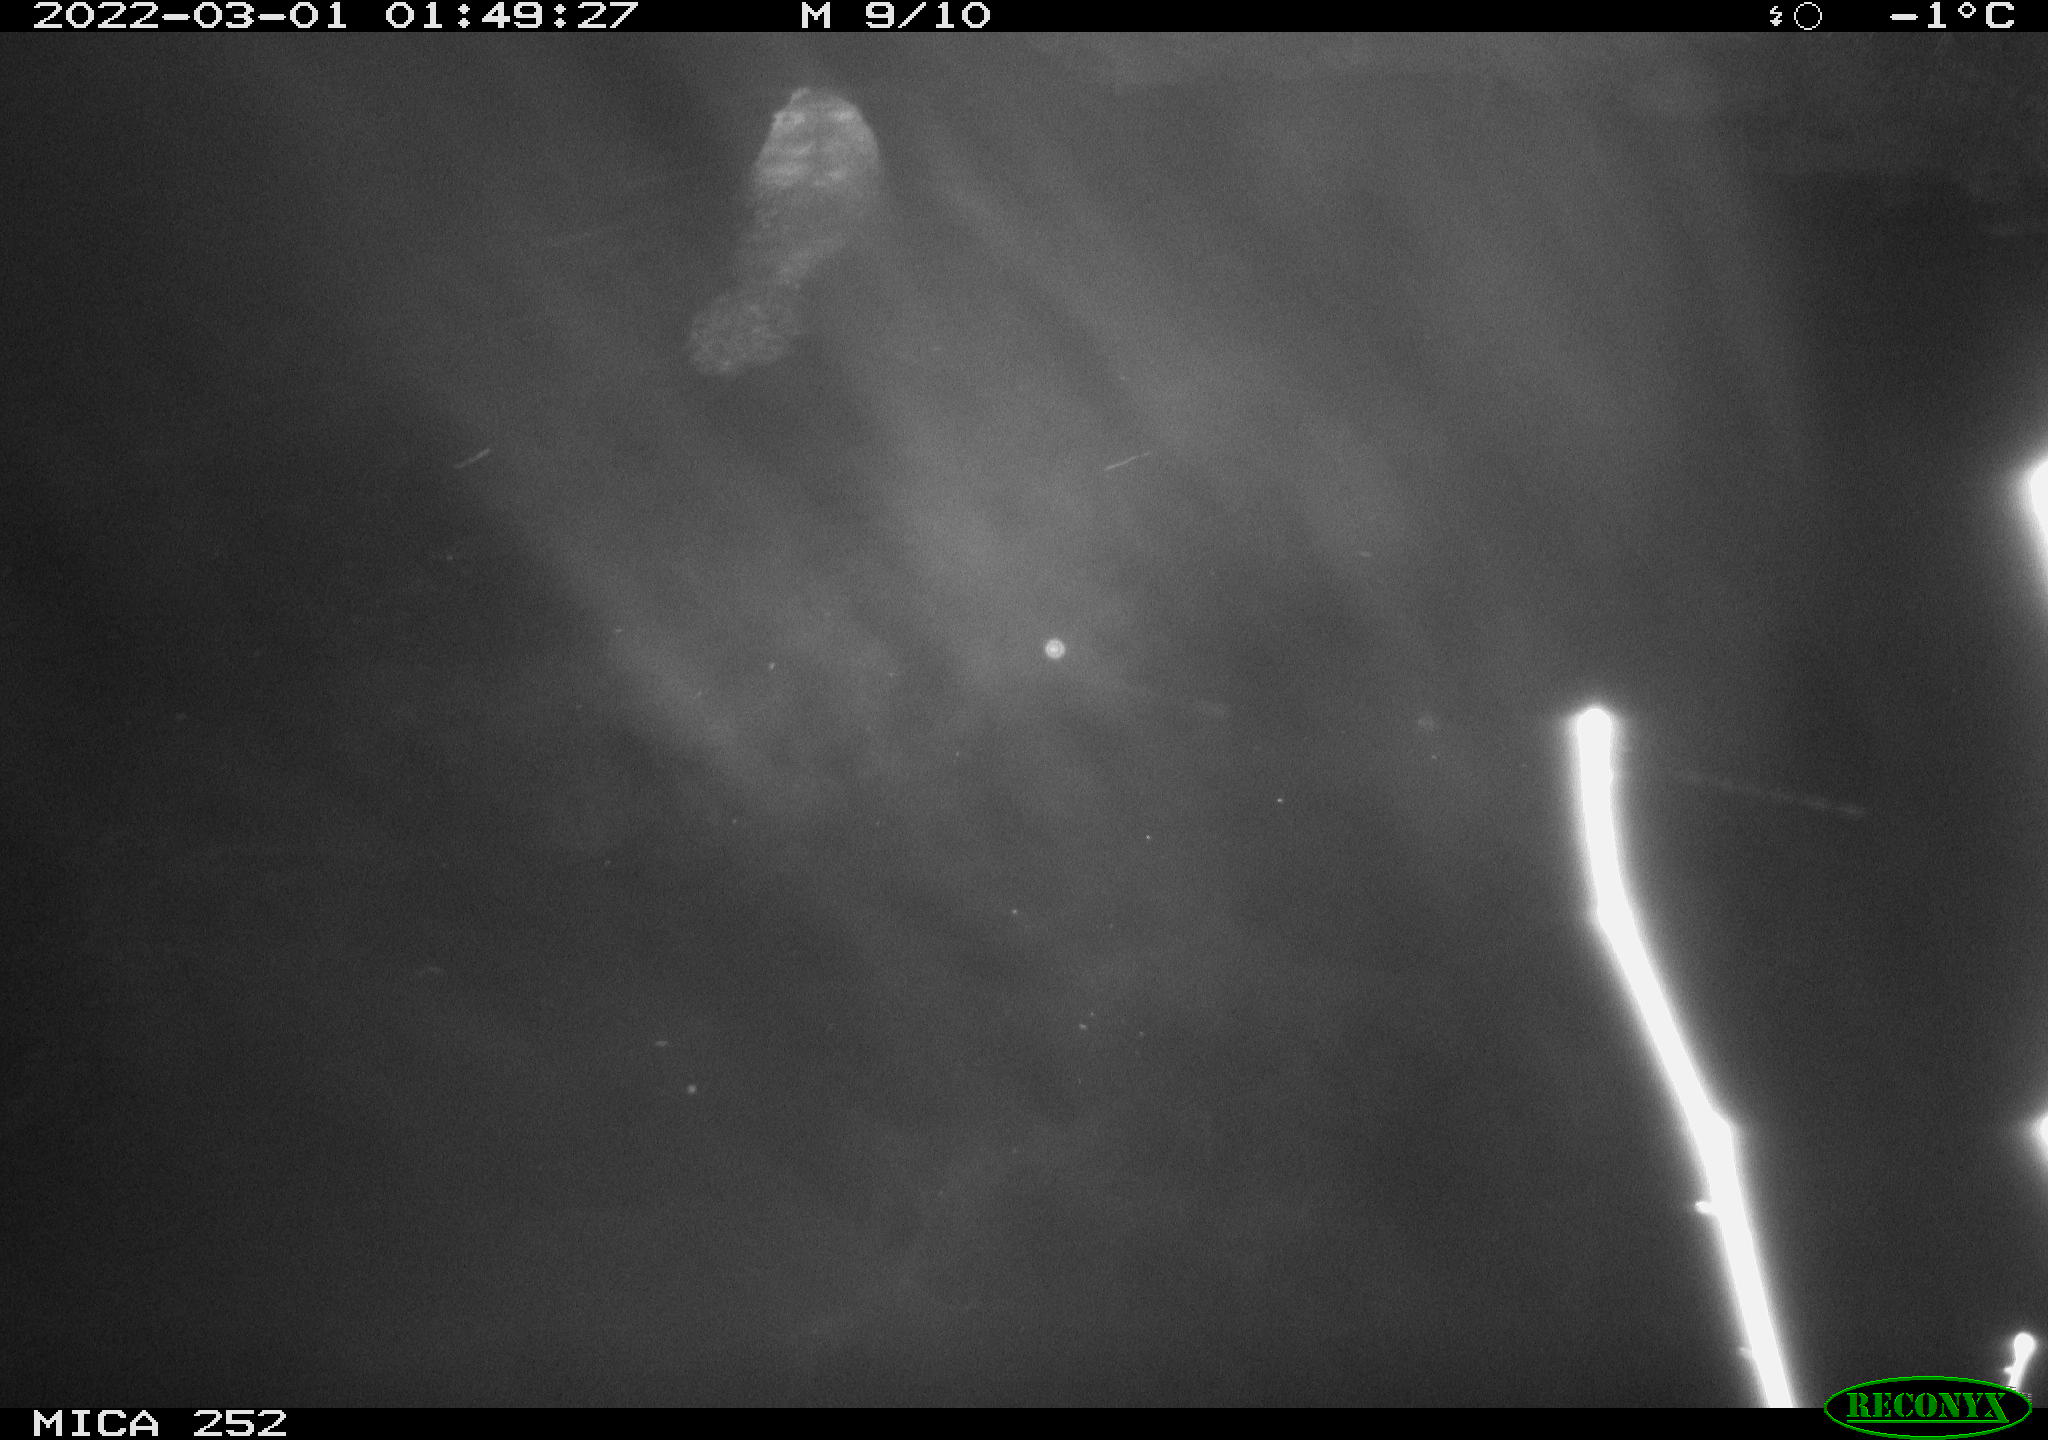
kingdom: Animalia
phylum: Chordata
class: Mammalia
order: Rodentia
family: Castoridae
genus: Castor
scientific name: Castor fiber
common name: Eurasian beaver
